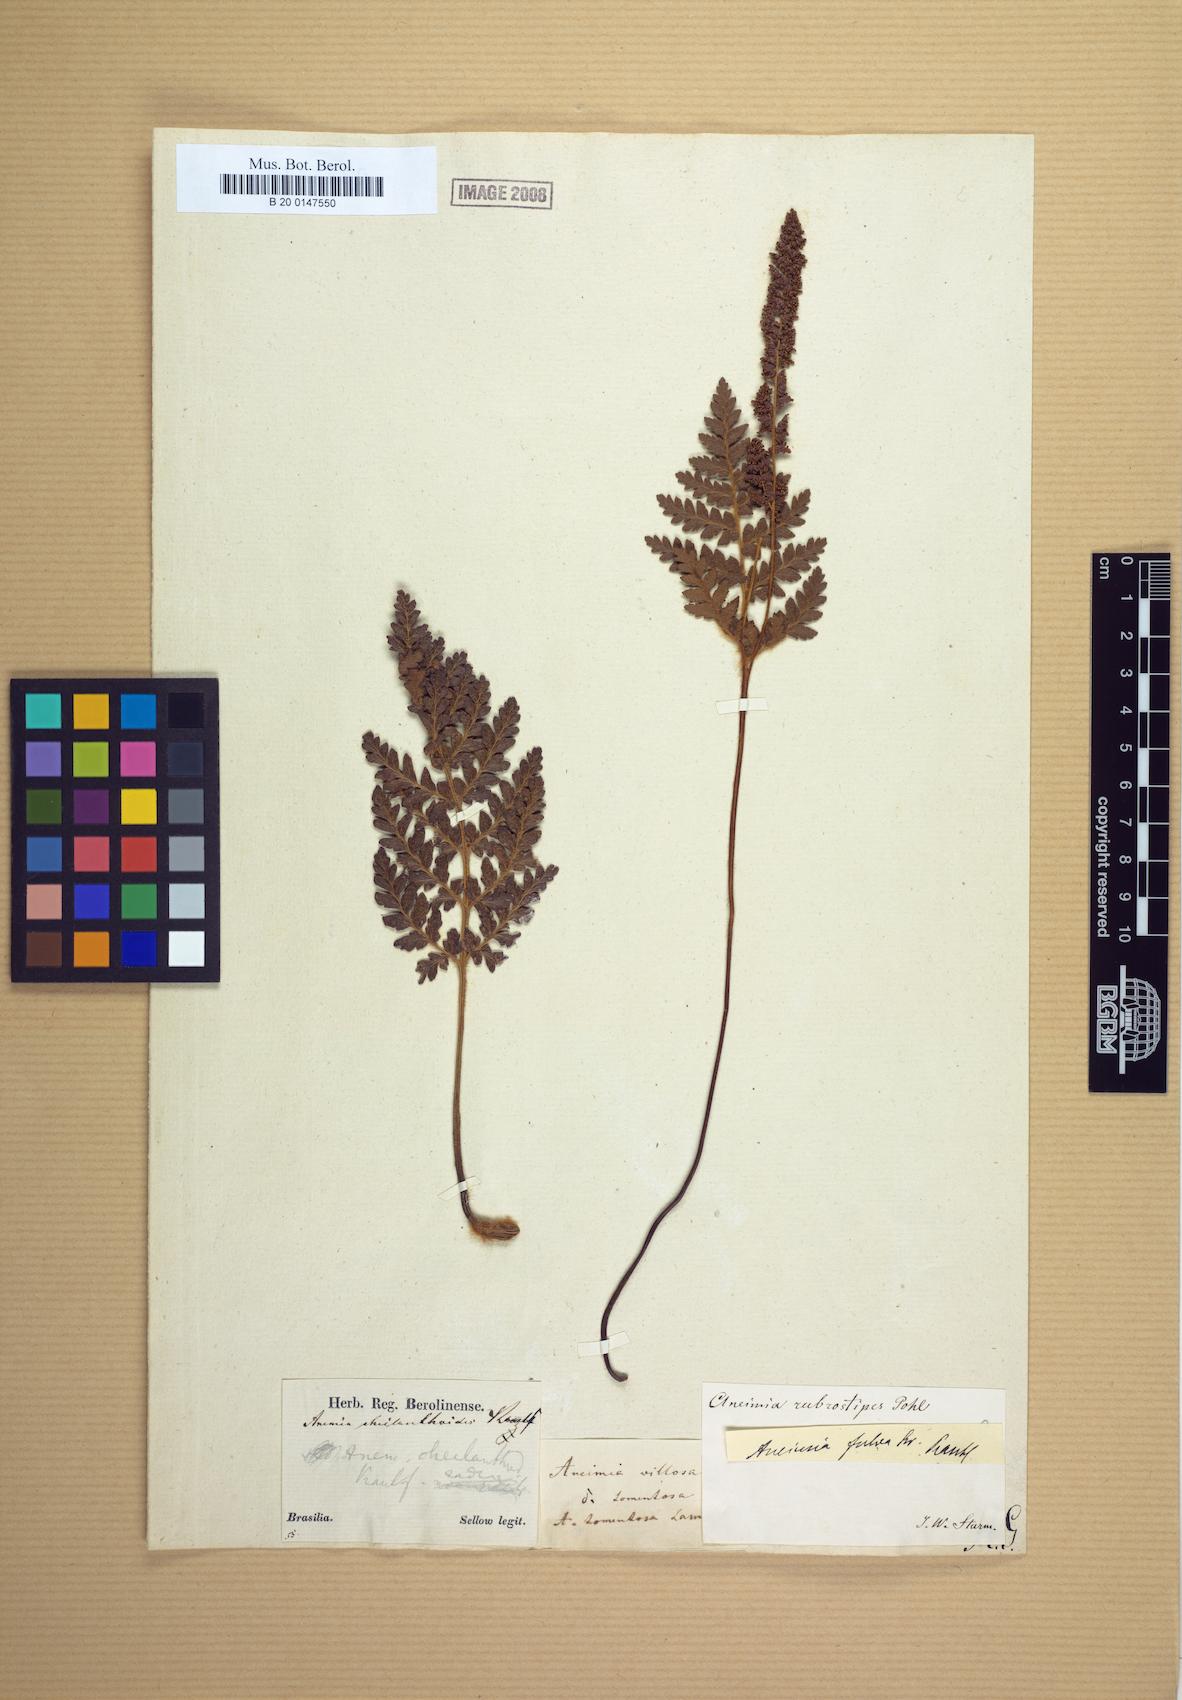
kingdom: Plantae
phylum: Tracheophyta
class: Polypodiopsida
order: Schizaeales
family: Anemiaceae
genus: Anemia
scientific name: Anemia ferruginea
